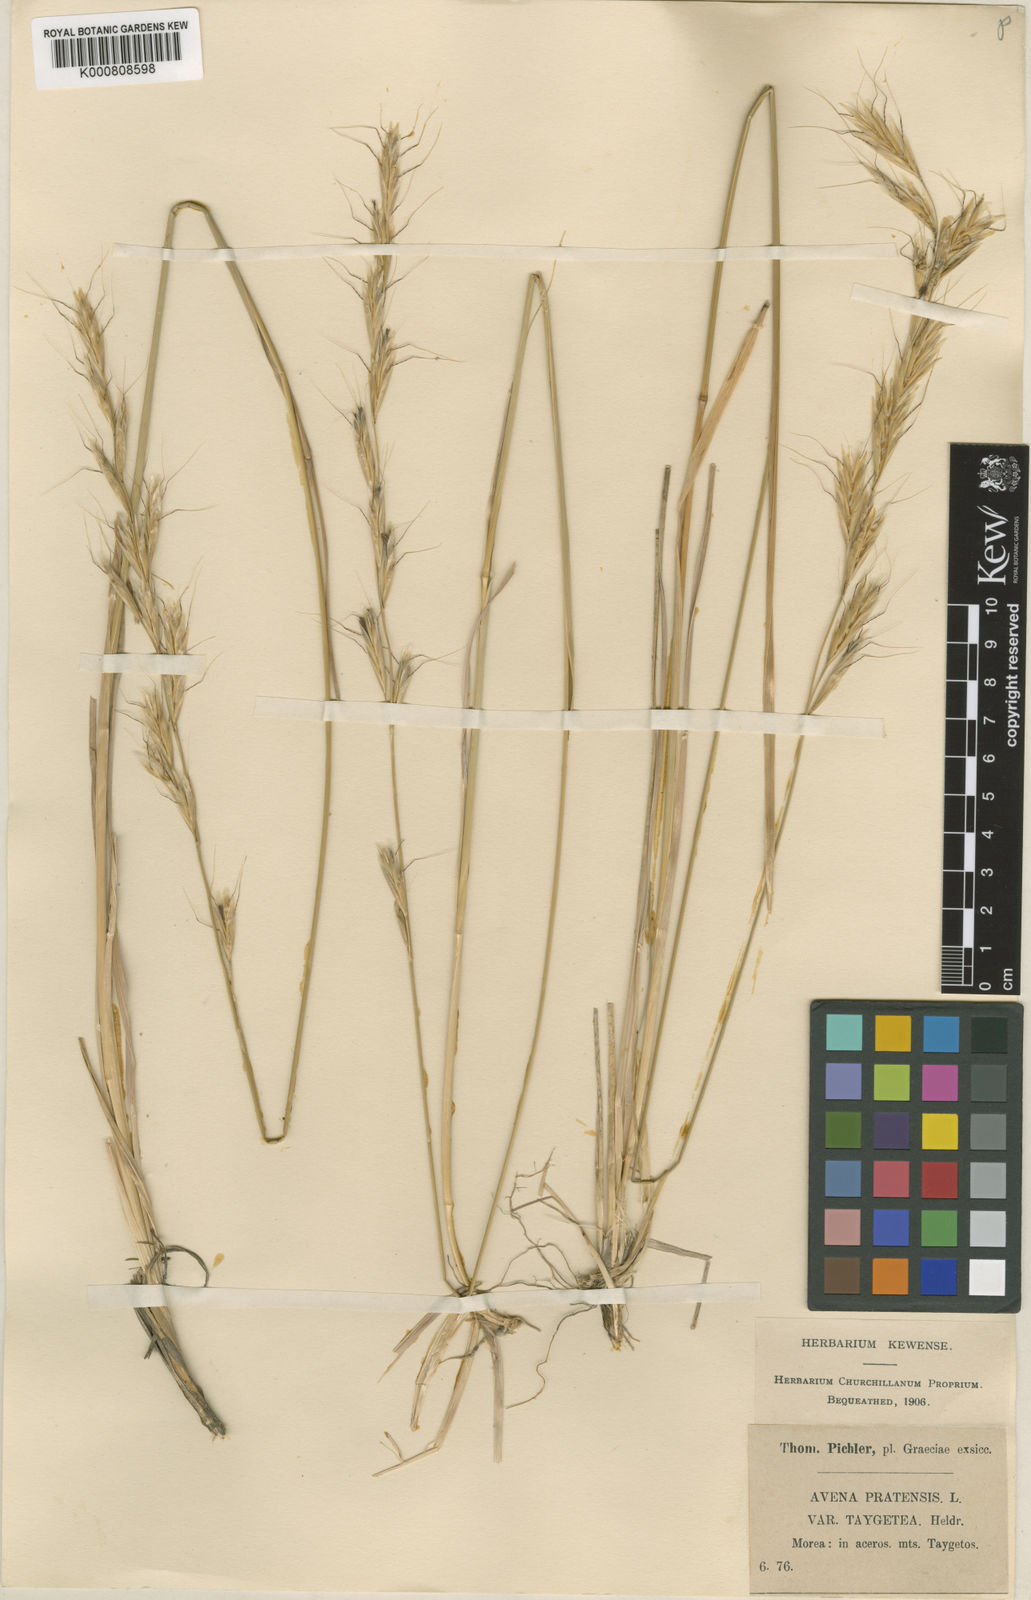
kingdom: Plantae
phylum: Tracheophyta
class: Liliopsida
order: Poales
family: Poaceae
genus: Helictochloa
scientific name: Helictochloa agropyroides
